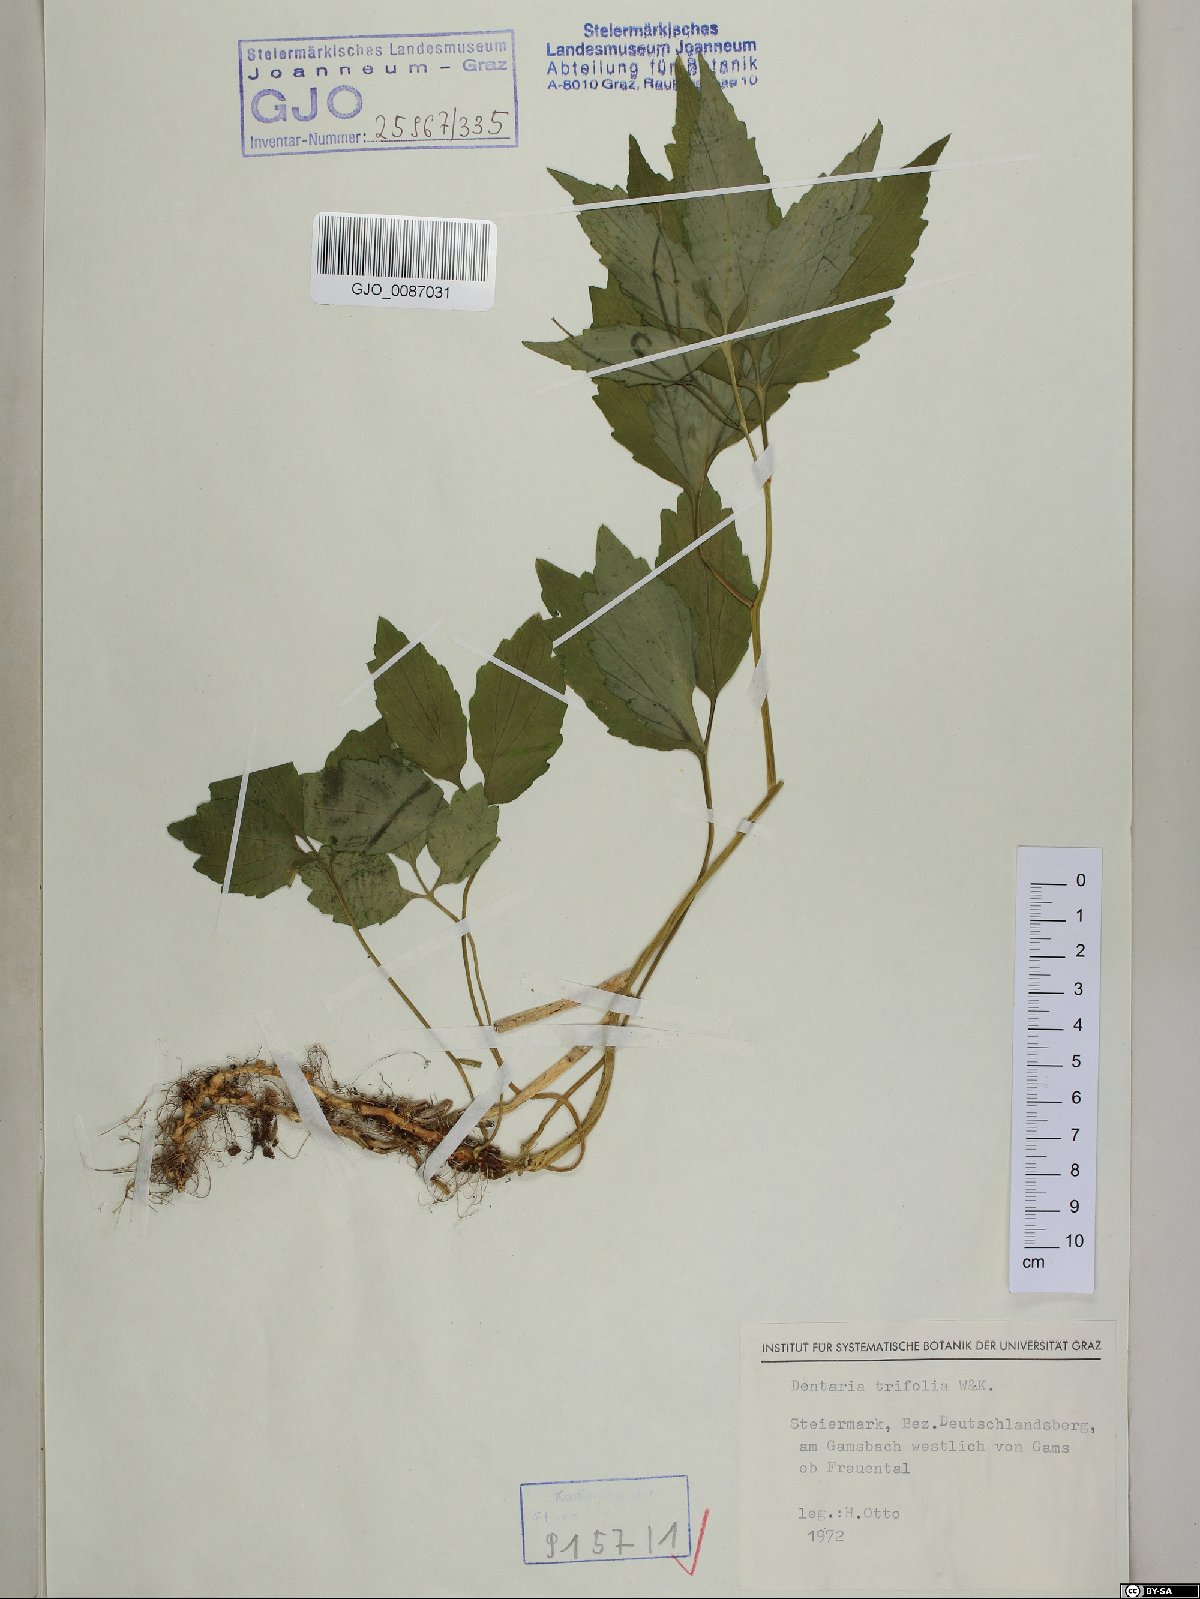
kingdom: Plantae
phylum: Tracheophyta
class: Magnoliopsida
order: Brassicales
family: Brassicaceae
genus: Cardamine
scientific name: Cardamine waldsteinii
